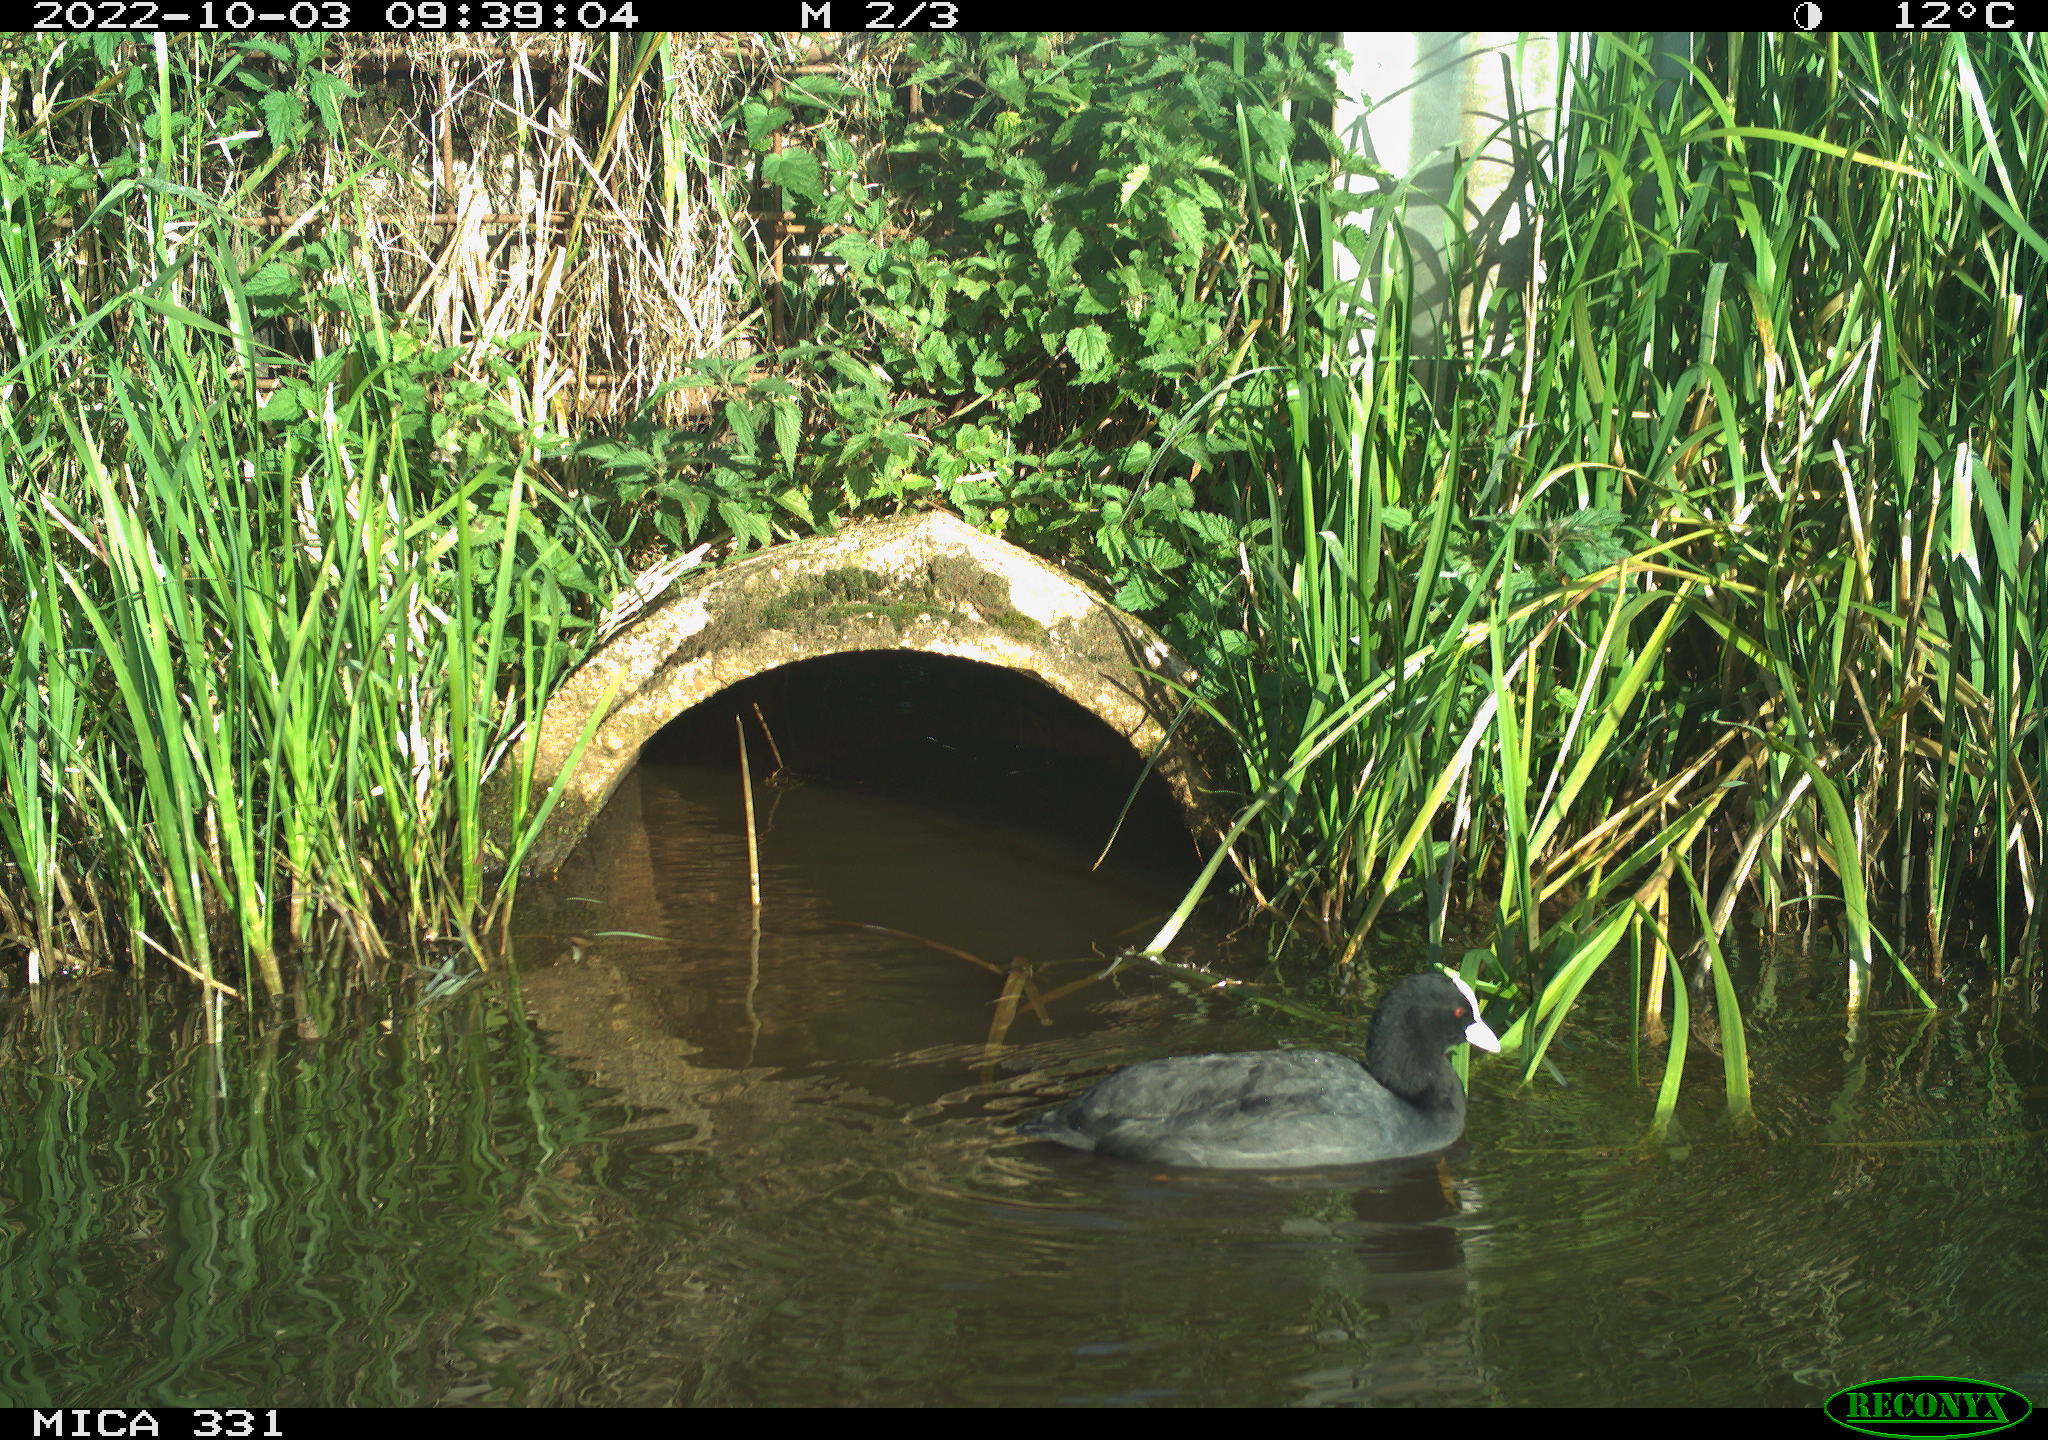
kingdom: Animalia
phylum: Chordata
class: Aves
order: Gruiformes
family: Rallidae
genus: Fulica
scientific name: Fulica atra
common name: Eurasian coot
